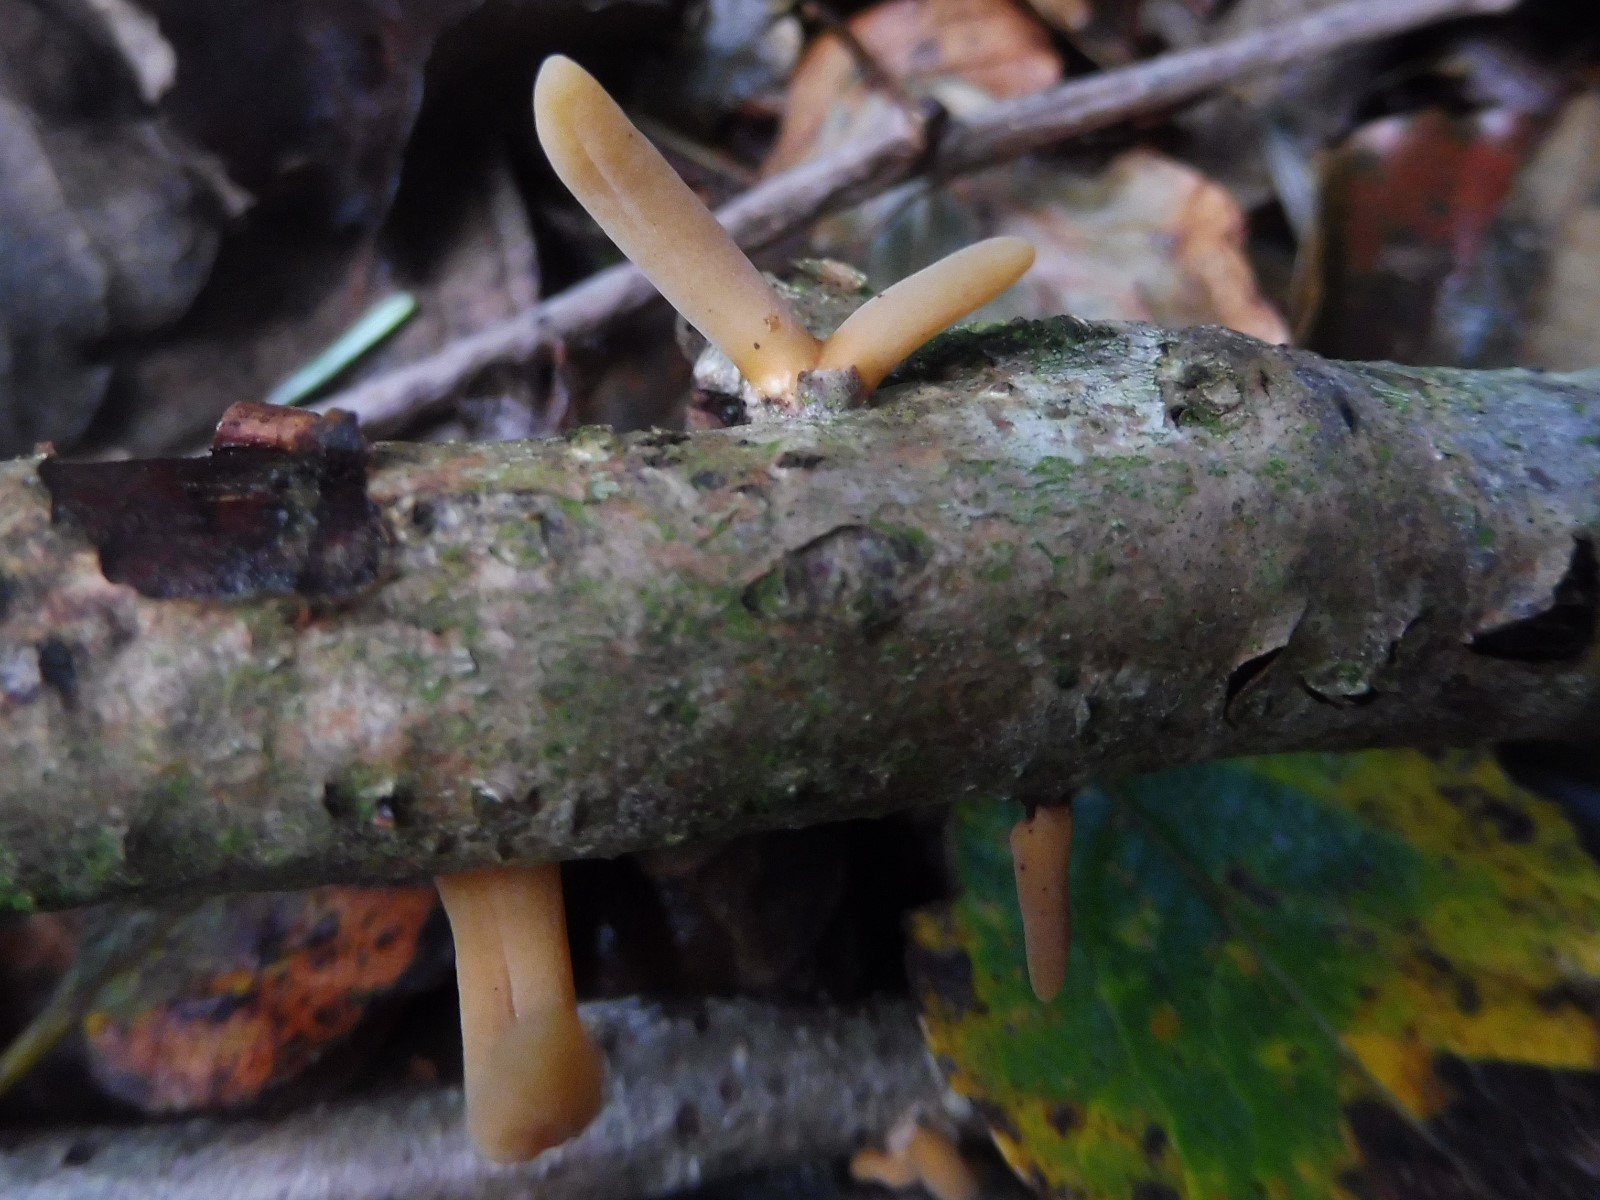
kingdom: Fungi
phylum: Basidiomycota
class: Agaricomycetes
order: Agaricales
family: Typhulaceae
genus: Typhula
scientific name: Typhula fistulosa
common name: pibet rørkølle
